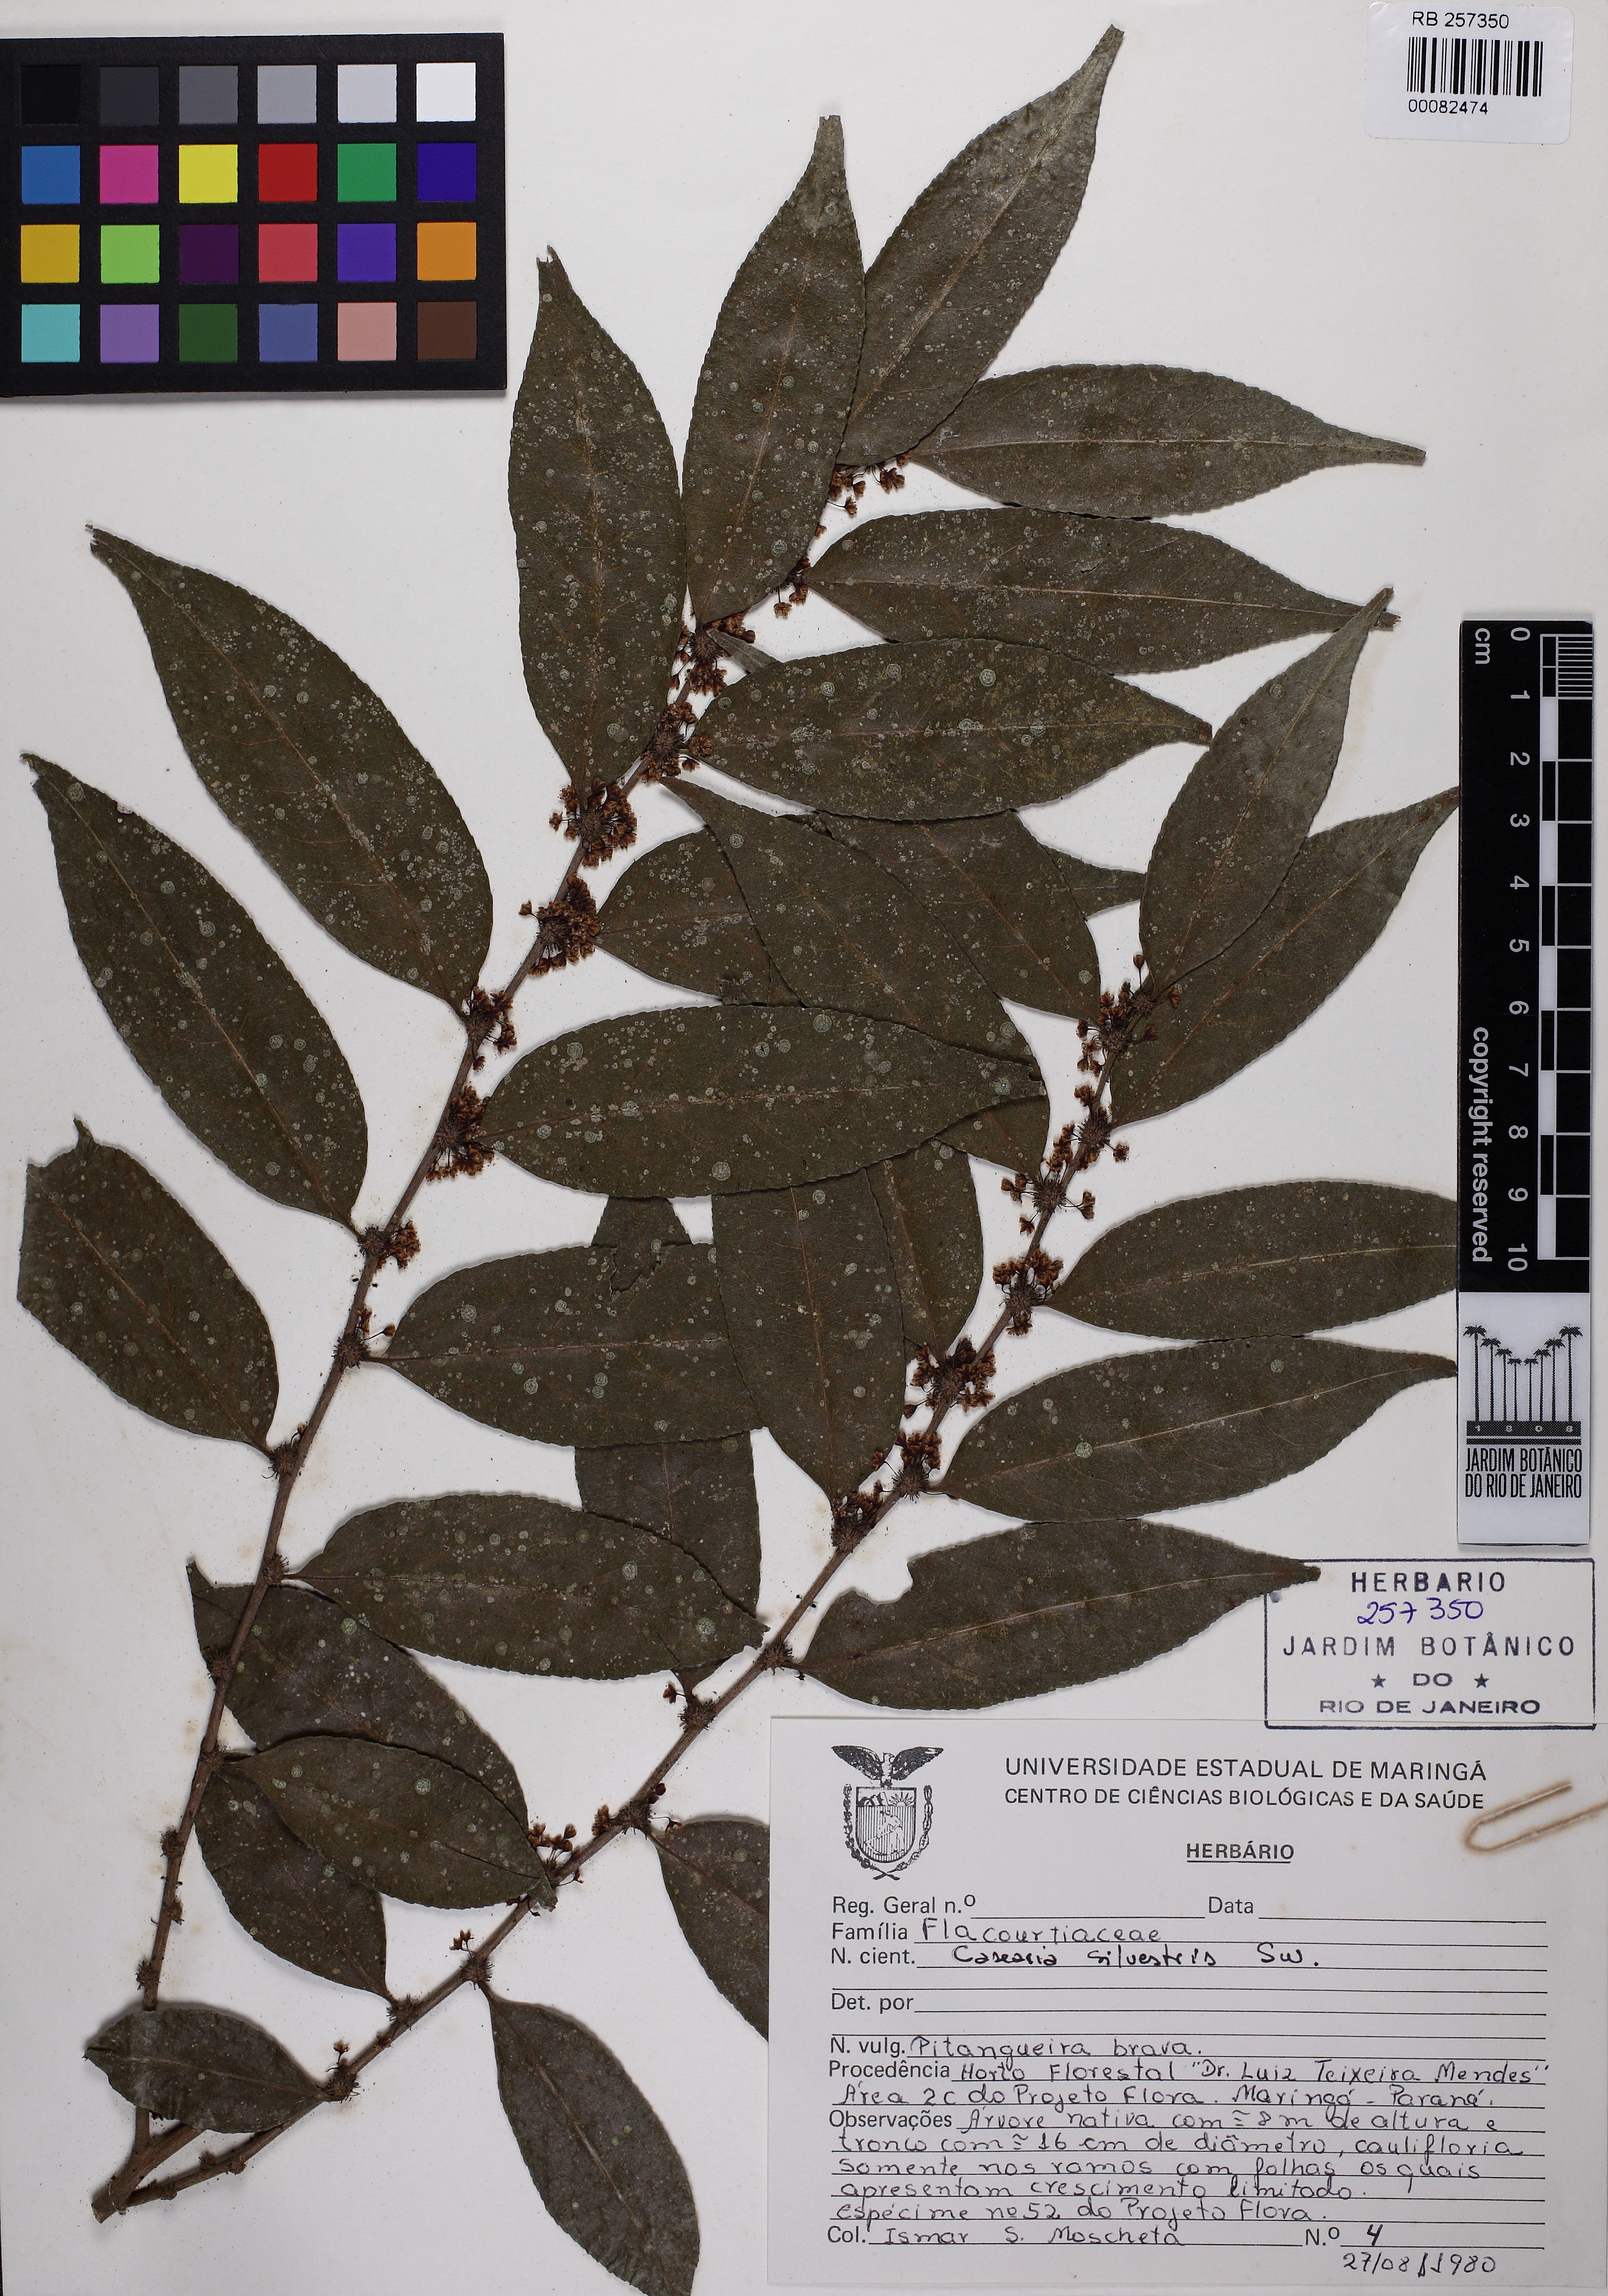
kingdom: Plantae
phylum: Tracheophyta
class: Magnoliopsida
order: Malpighiales
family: Salicaceae
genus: Casearia
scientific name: Casearia sylvestris
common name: Wild sage
